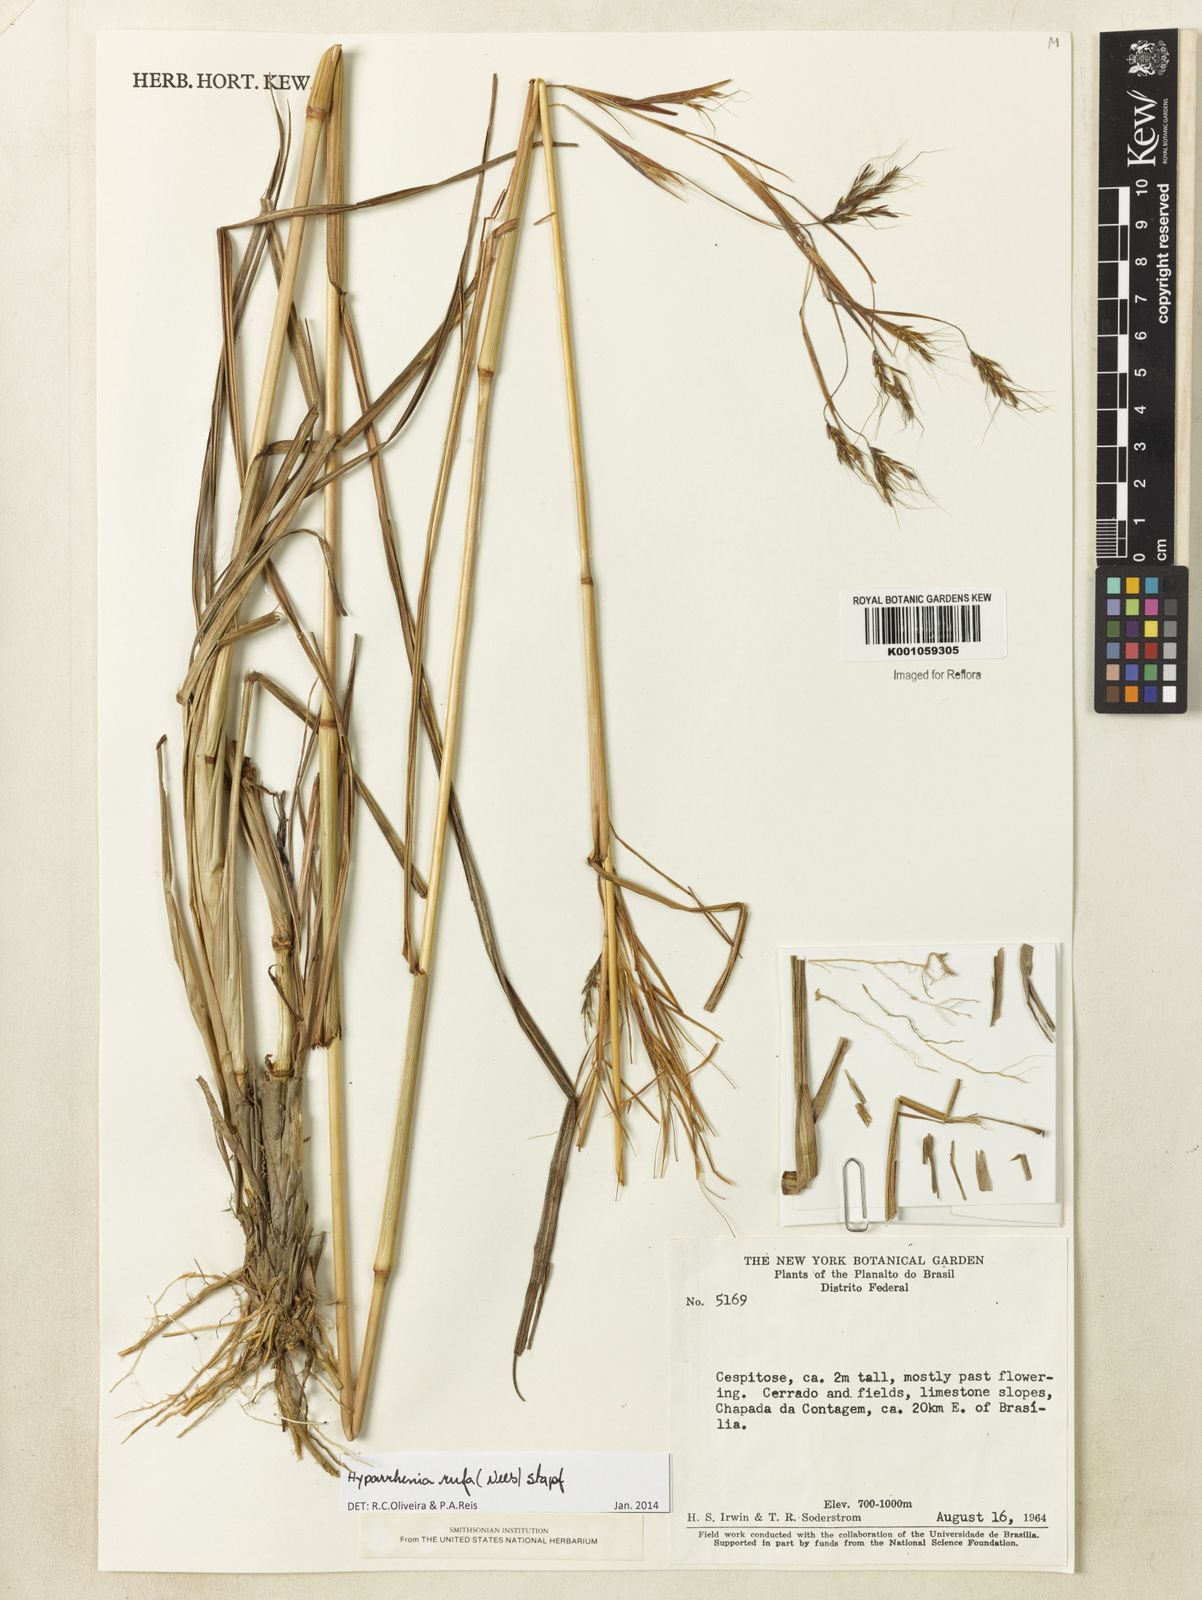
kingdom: Plantae
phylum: Tracheophyta
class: Liliopsida
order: Poales
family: Poaceae
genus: Hyparrhenia
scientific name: Hyparrhenia rufa
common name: Jaraguagrass
